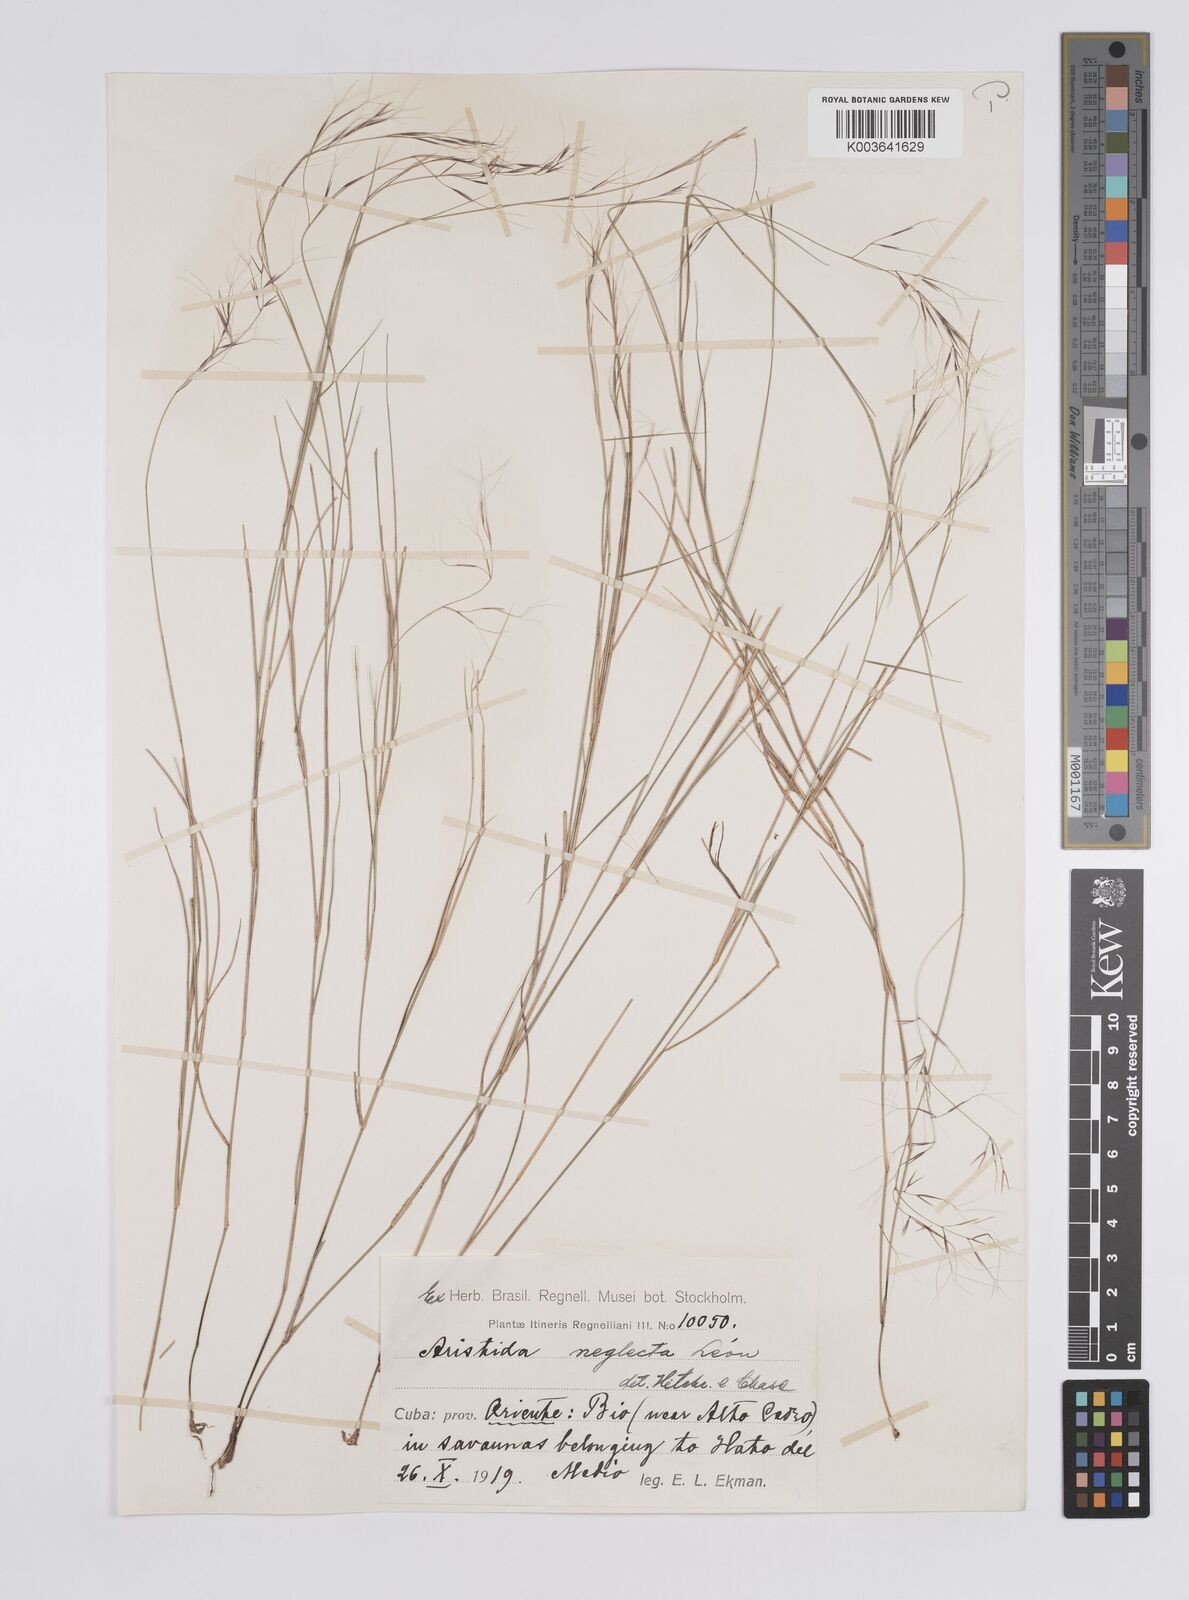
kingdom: Plantae
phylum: Tracheophyta
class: Liliopsida
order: Poales
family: Poaceae
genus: Aristida
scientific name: Aristida neglecta
